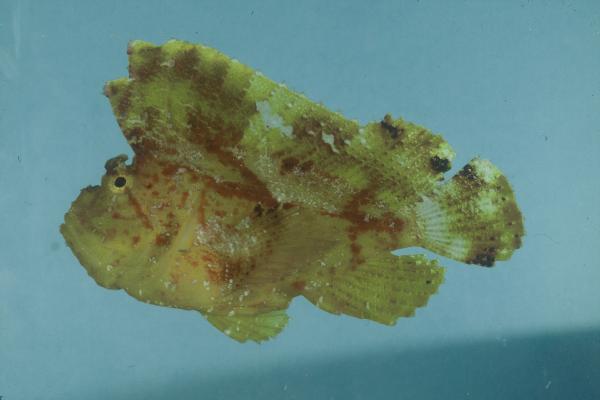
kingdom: Animalia
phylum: Chordata
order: Scorpaeniformes
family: Scorpaenidae
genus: Taenianotus
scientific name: Taenianotus triacanthus
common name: Leaf scorpionfish
